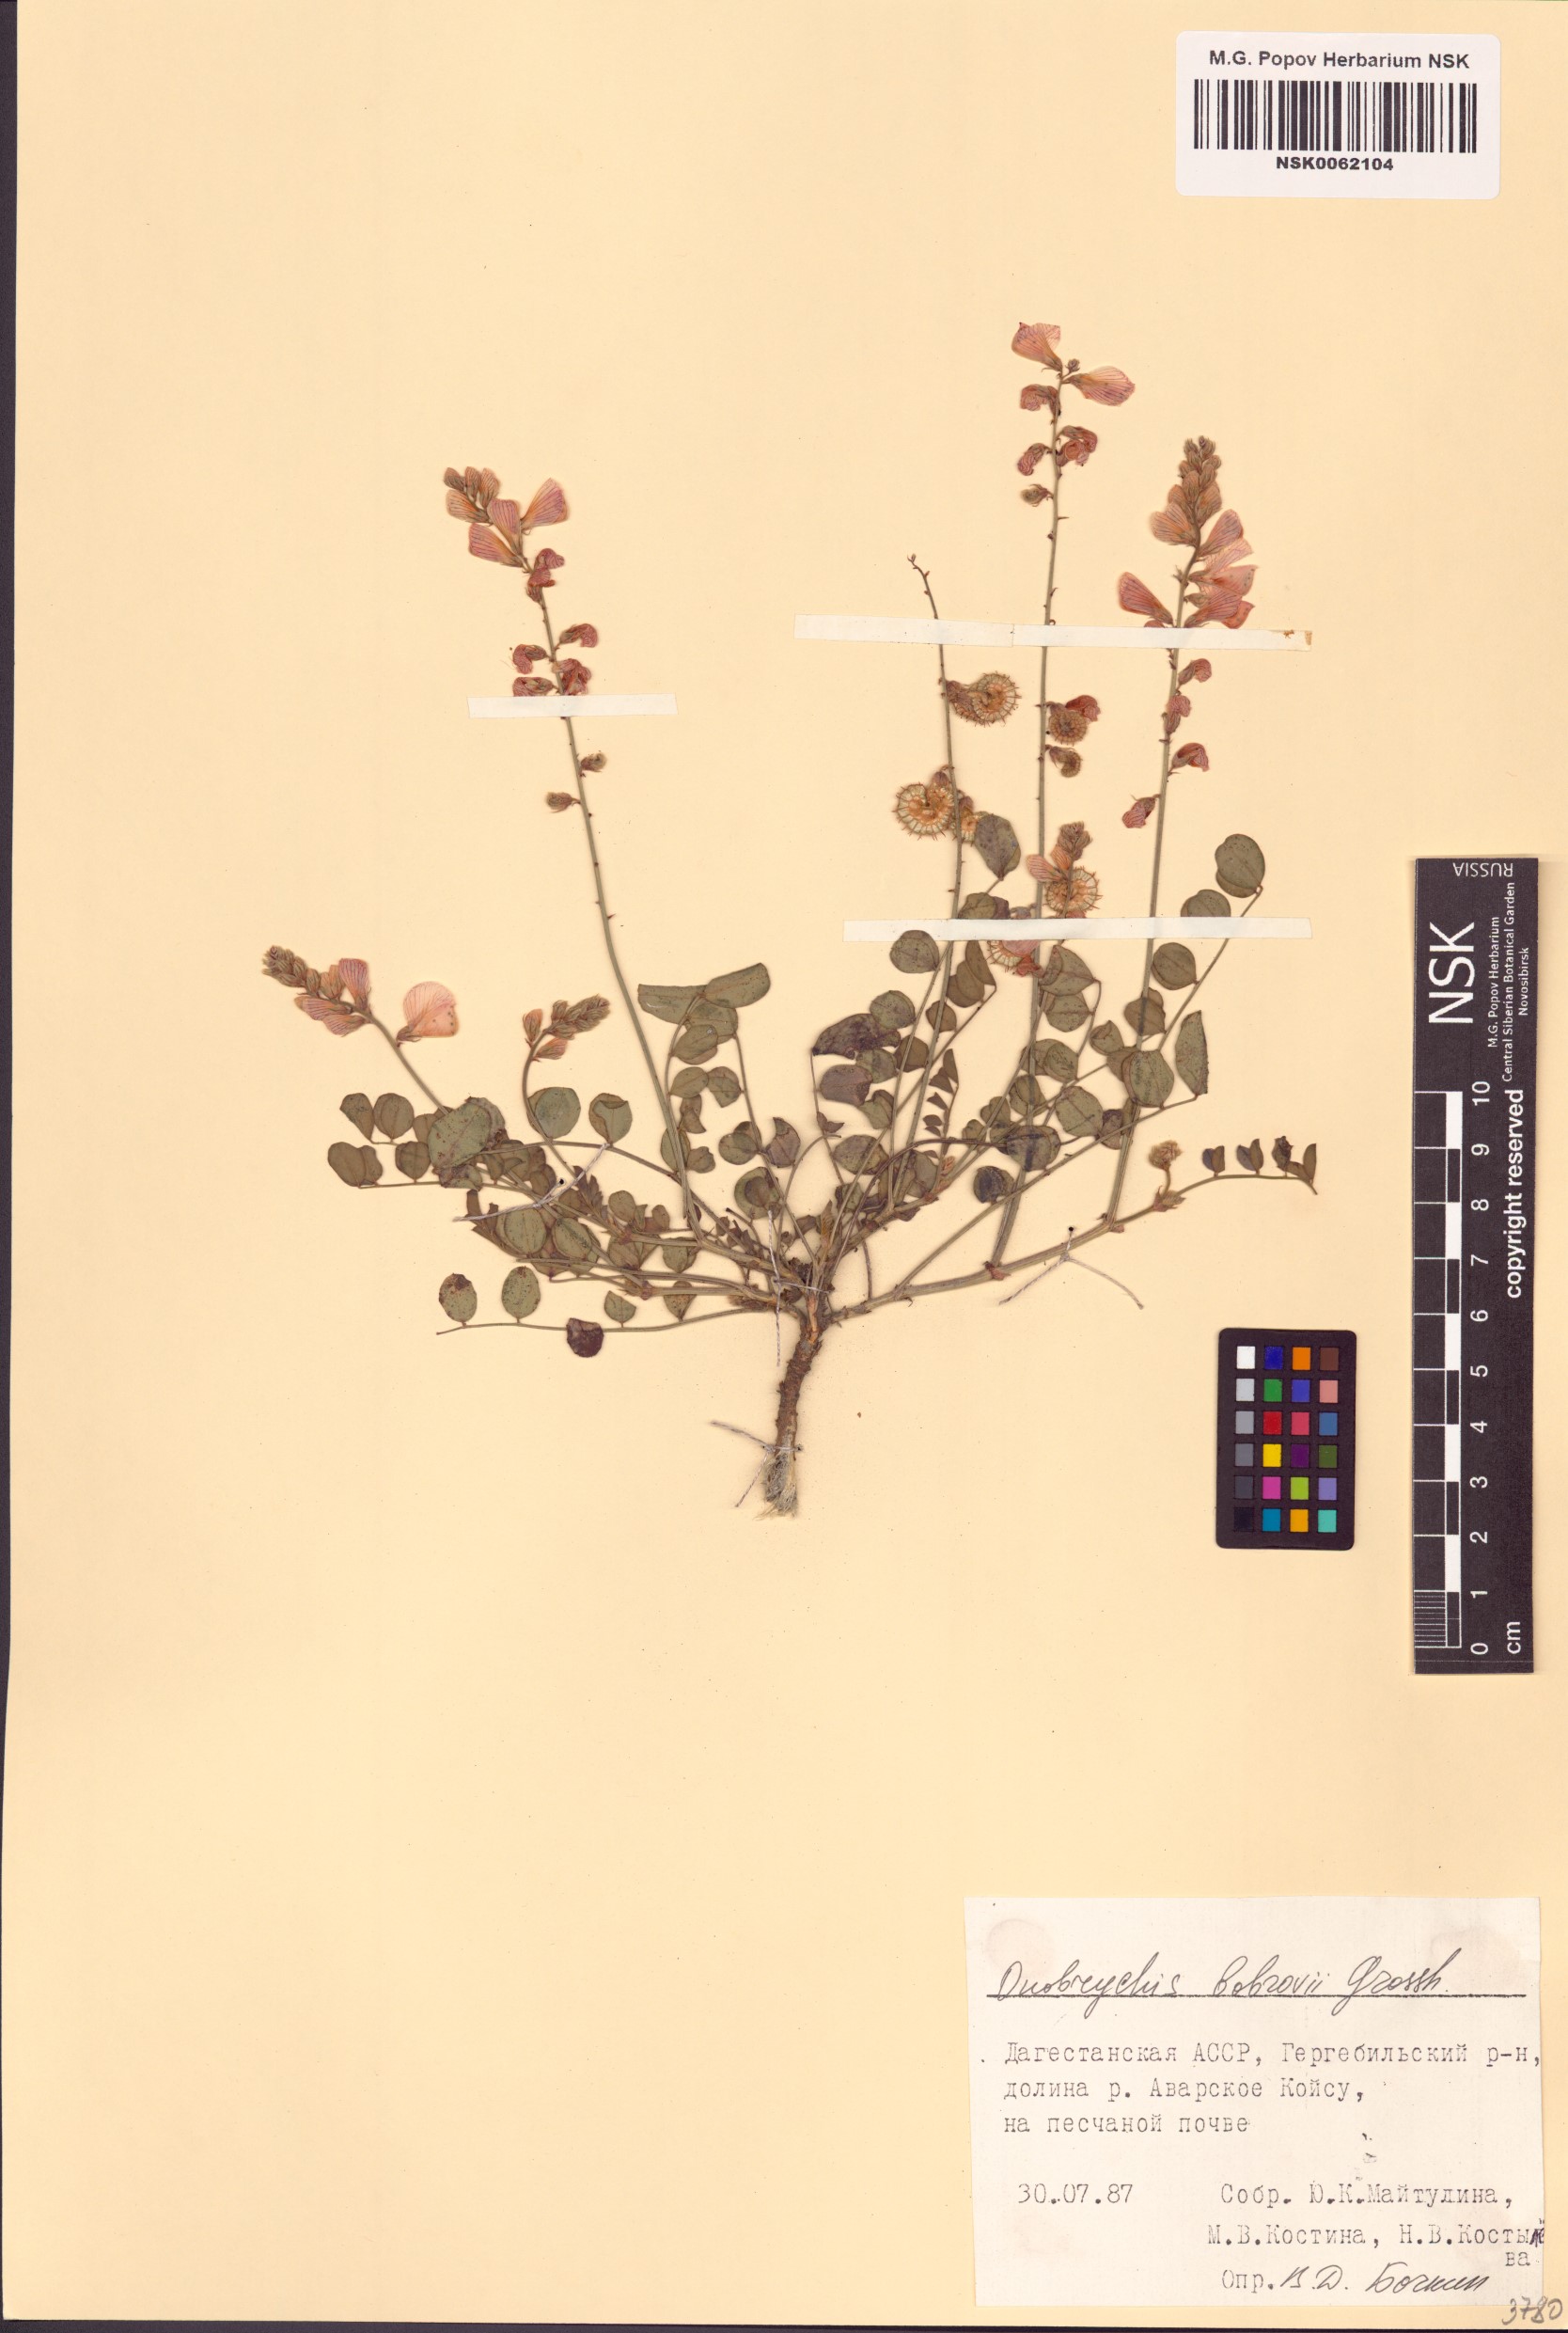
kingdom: Plantae
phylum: Tracheophyta
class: Magnoliopsida
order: Fabales
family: Fabaceae
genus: Onobrychis
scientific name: Onobrychis bobrovii
